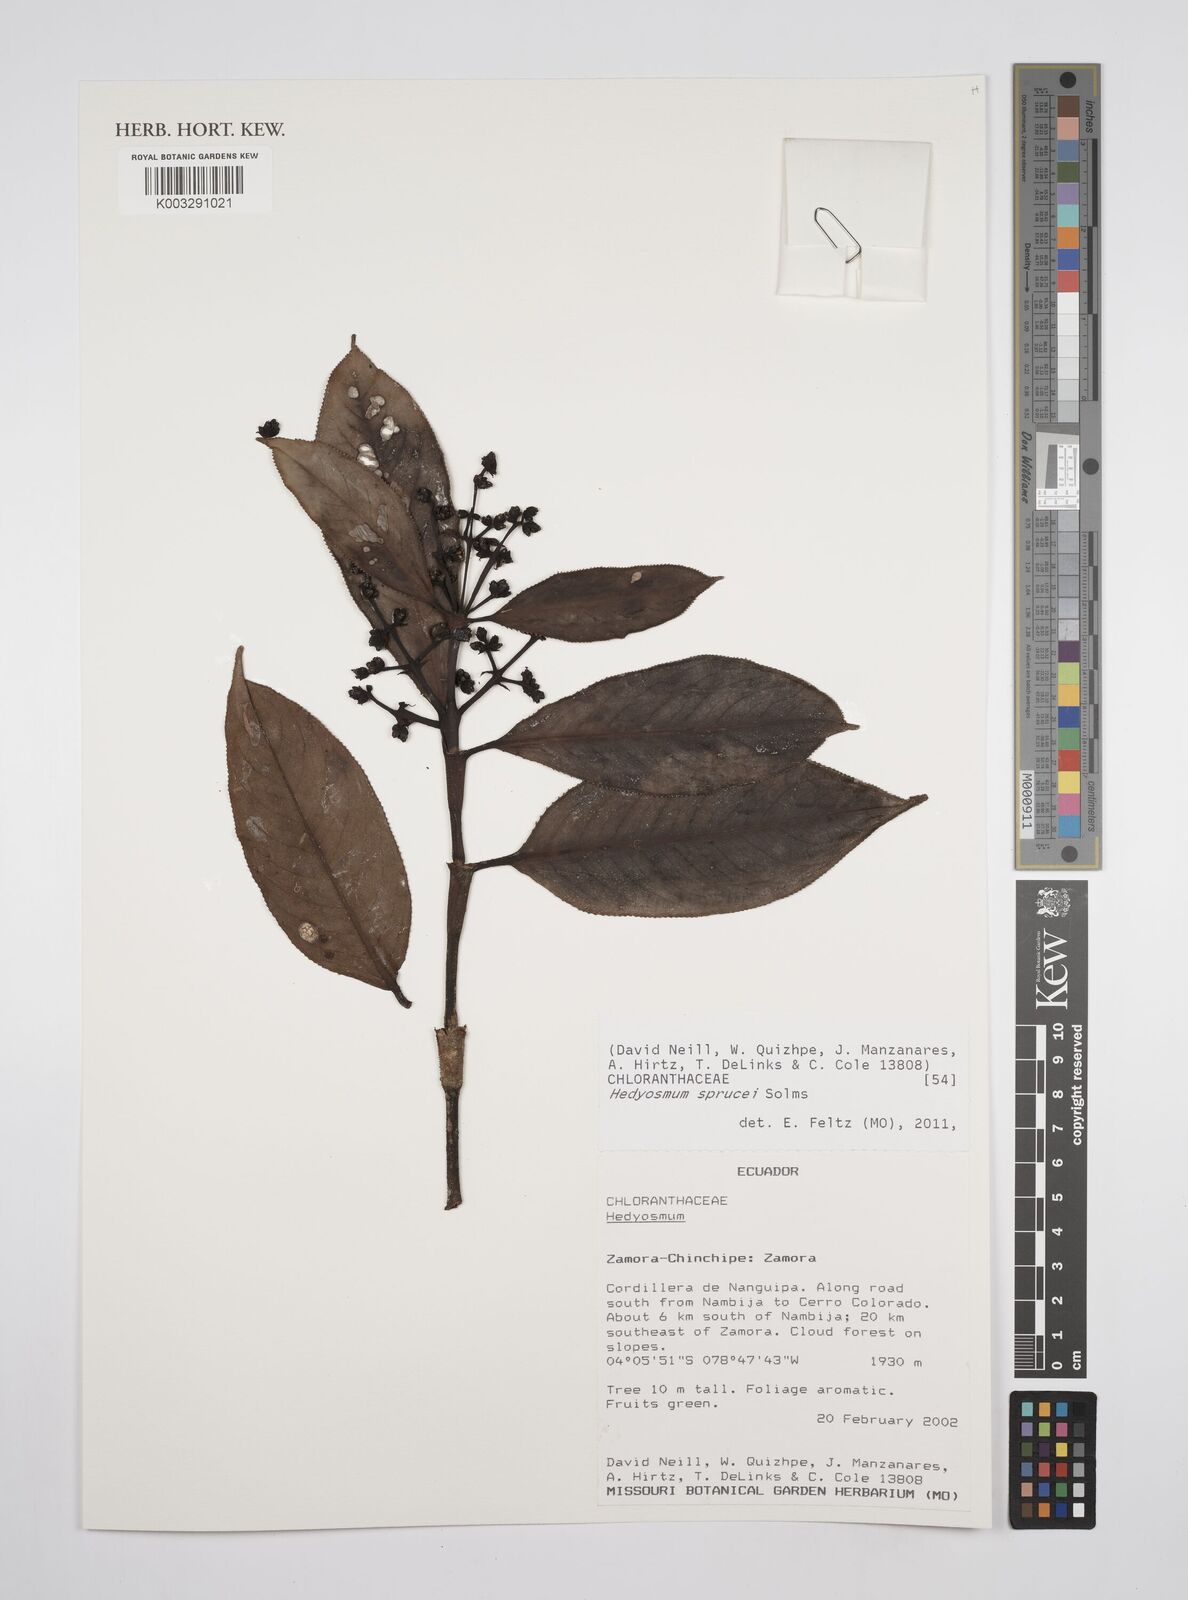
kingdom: Plantae
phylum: Tracheophyta
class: Magnoliopsida
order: Chloranthales
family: Chloranthaceae
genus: Hedyosmum
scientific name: Hedyosmum sprucei
